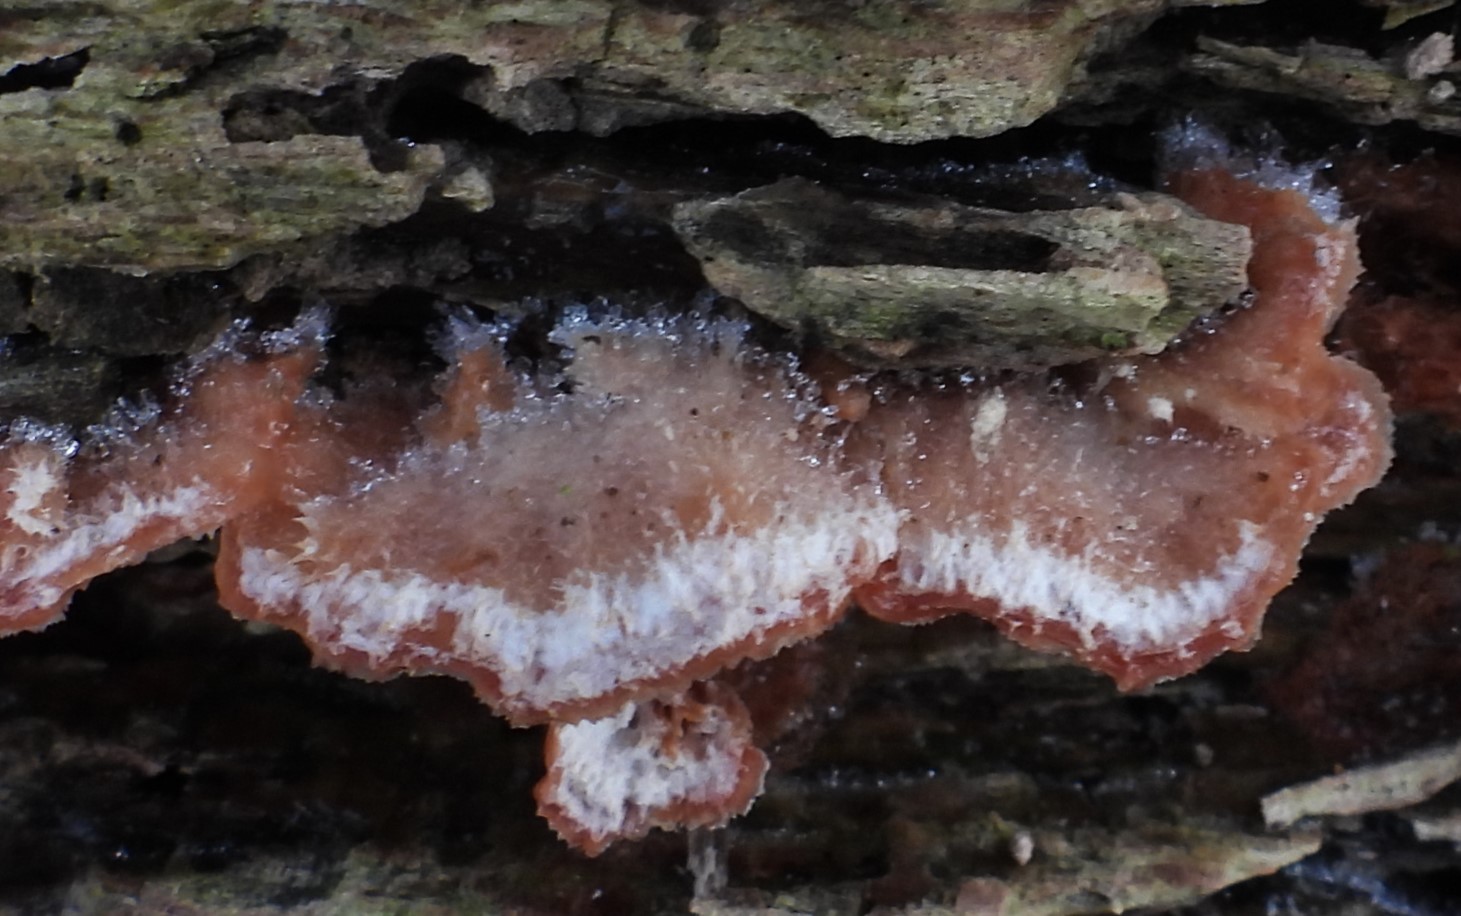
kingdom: Fungi
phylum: Basidiomycota
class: Agaricomycetes
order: Polyporales
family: Meruliaceae
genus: Phlebia
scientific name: Phlebia tremellosa
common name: bævrende åresvamp
